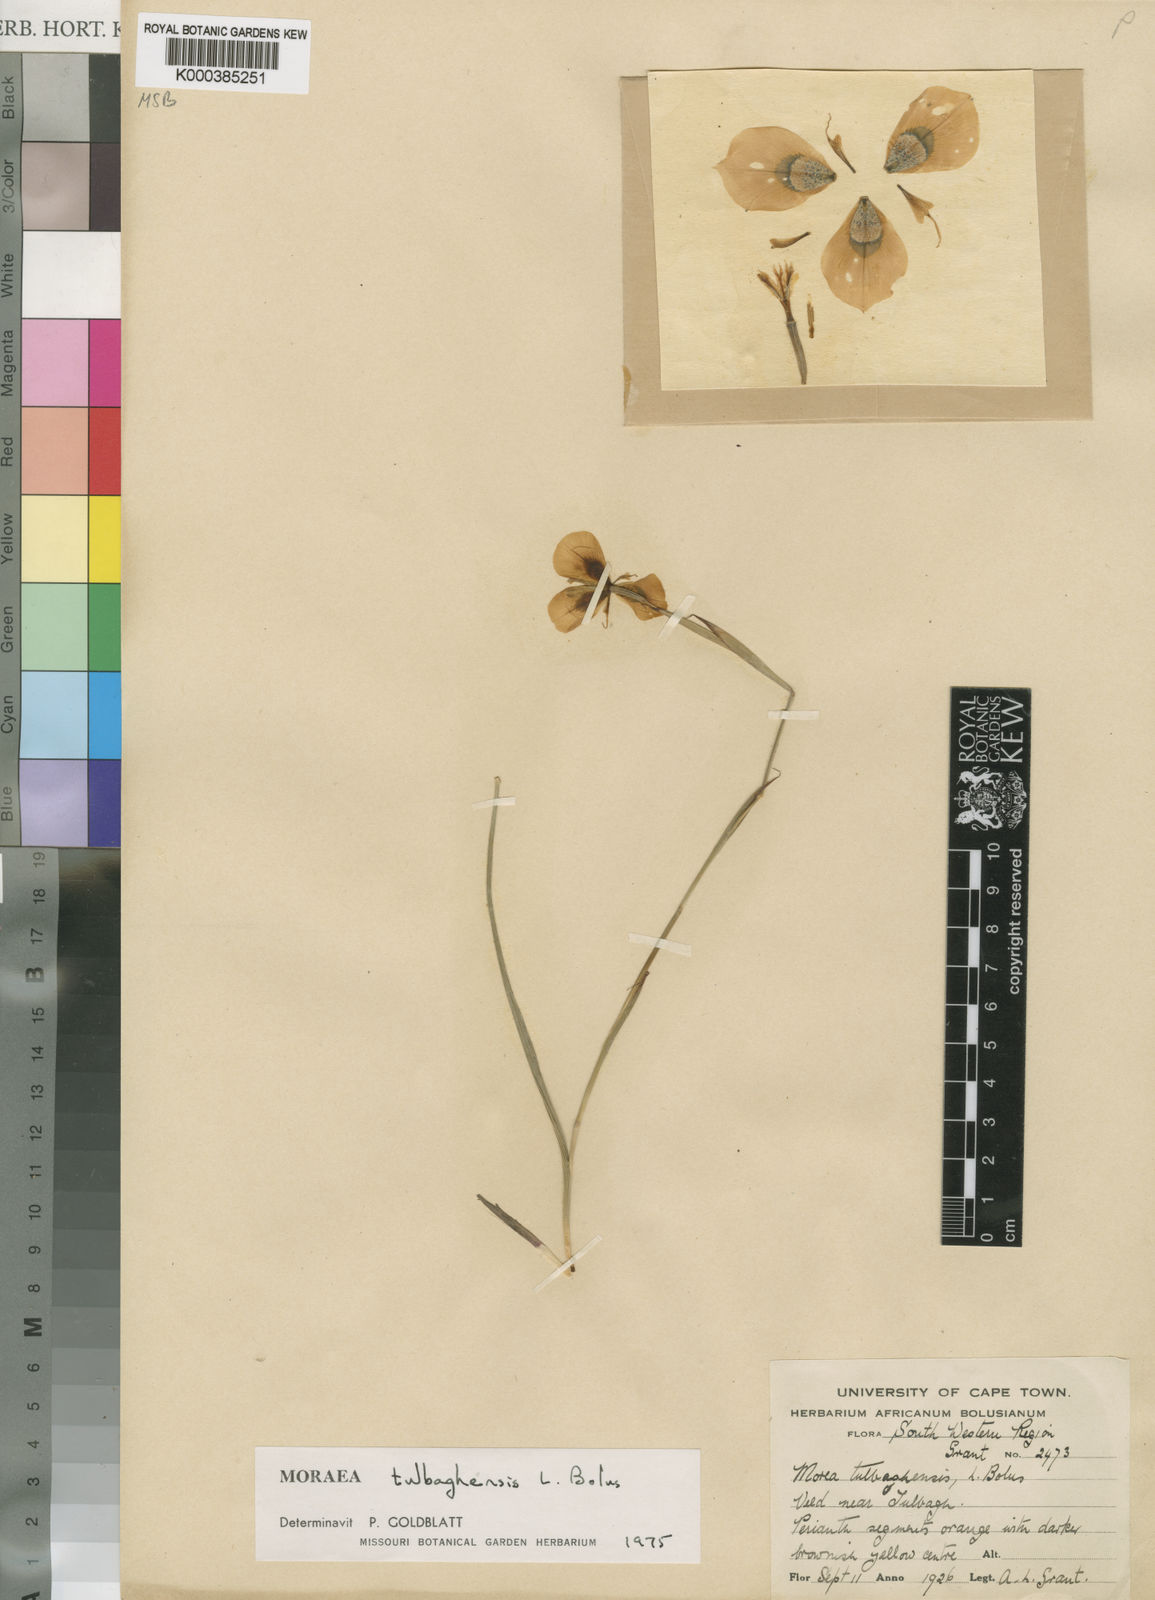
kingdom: Plantae
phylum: Tracheophyta
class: Liliopsida
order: Asparagales
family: Iridaceae
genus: Moraea
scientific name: Moraea tulbaghensis
